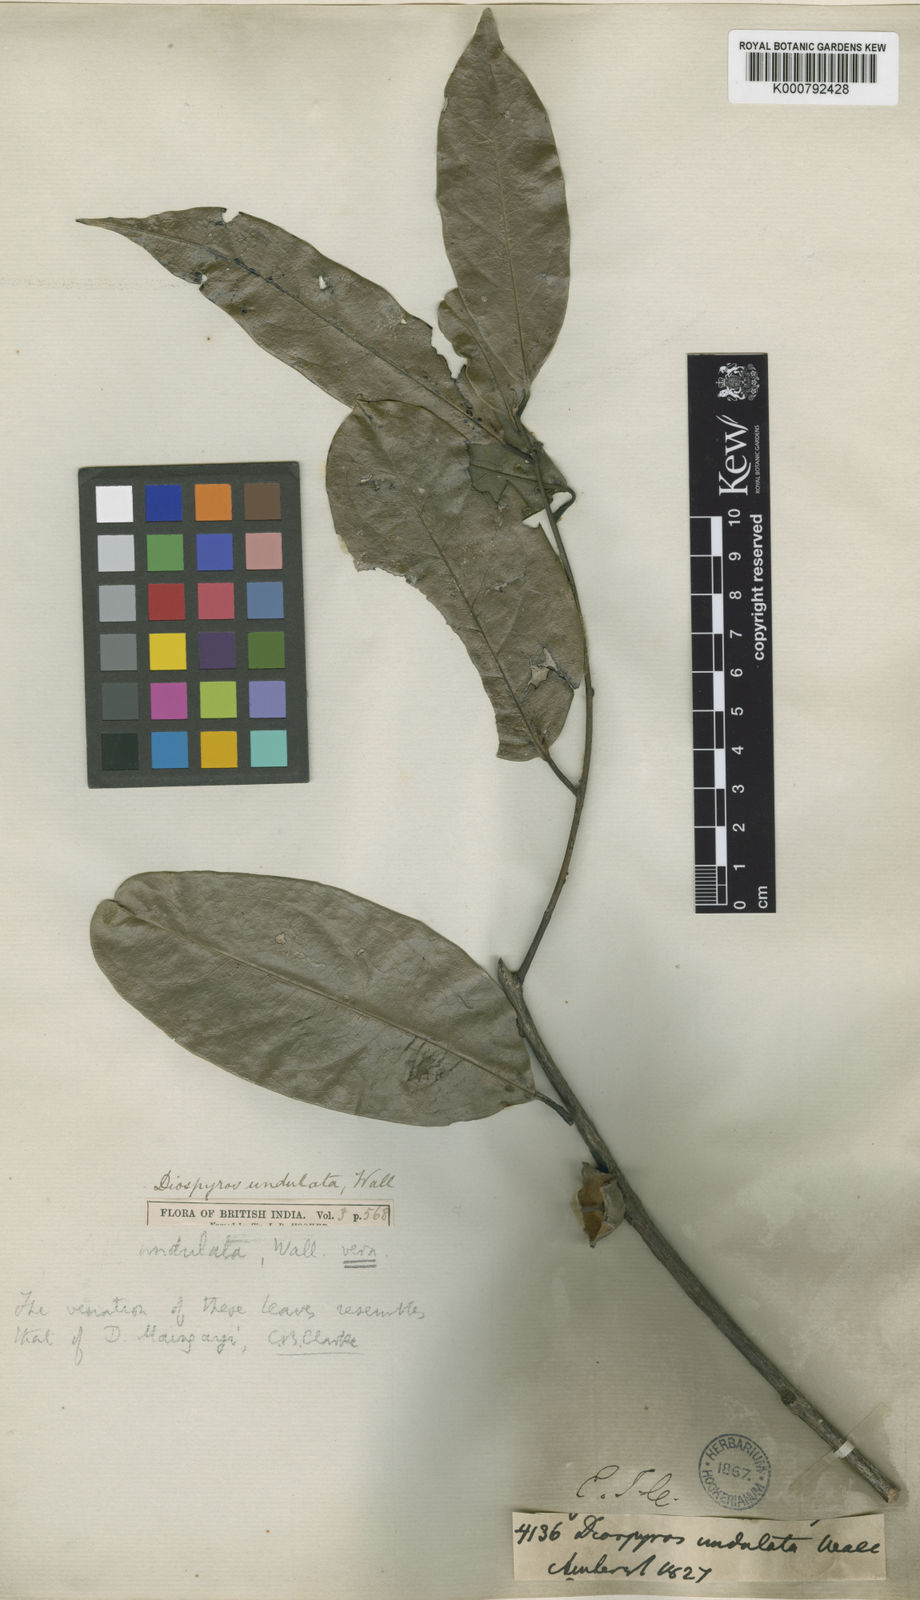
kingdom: Plantae
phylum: Tracheophyta
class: Magnoliopsida
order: Ericales
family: Ebenaceae
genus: Diospyros
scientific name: Diospyros
